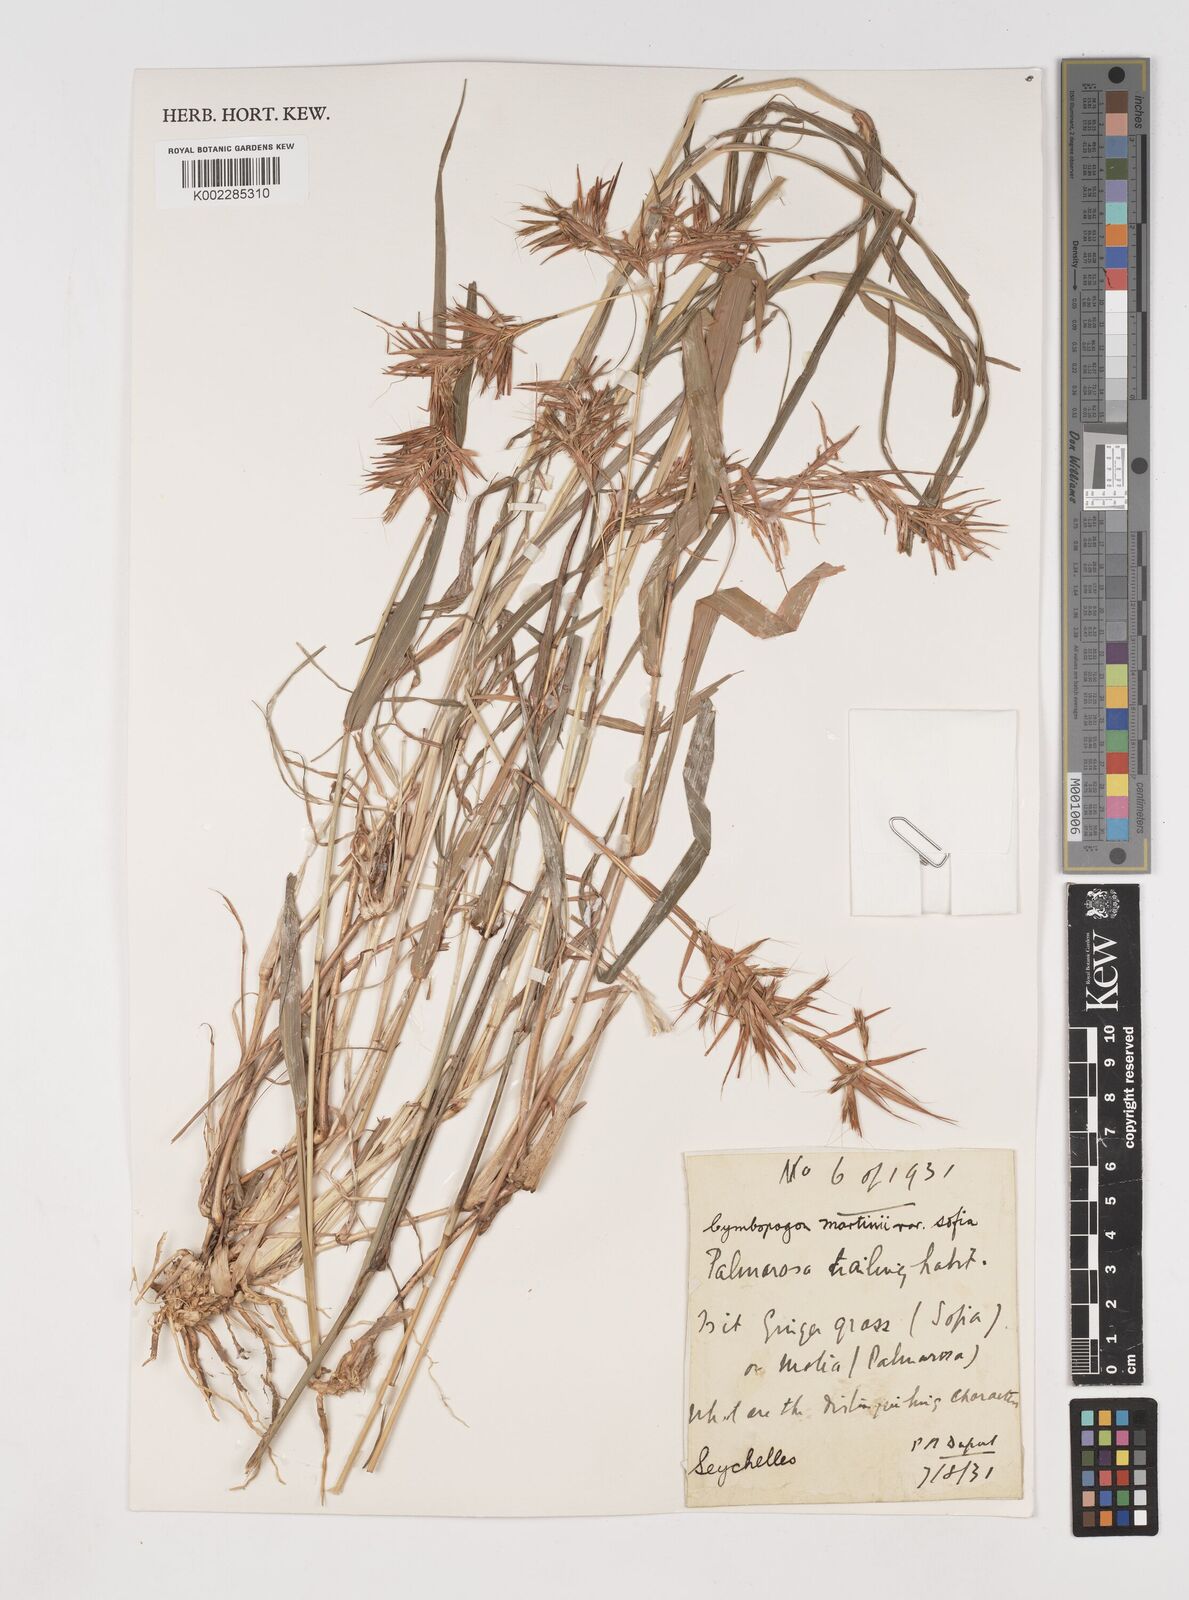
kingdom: Plantae
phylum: Tracheophyta
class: Liliopsida
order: Poales
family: Poaceae
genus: Cymbopogon
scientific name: Cymbopogon martini
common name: Ginger grass
